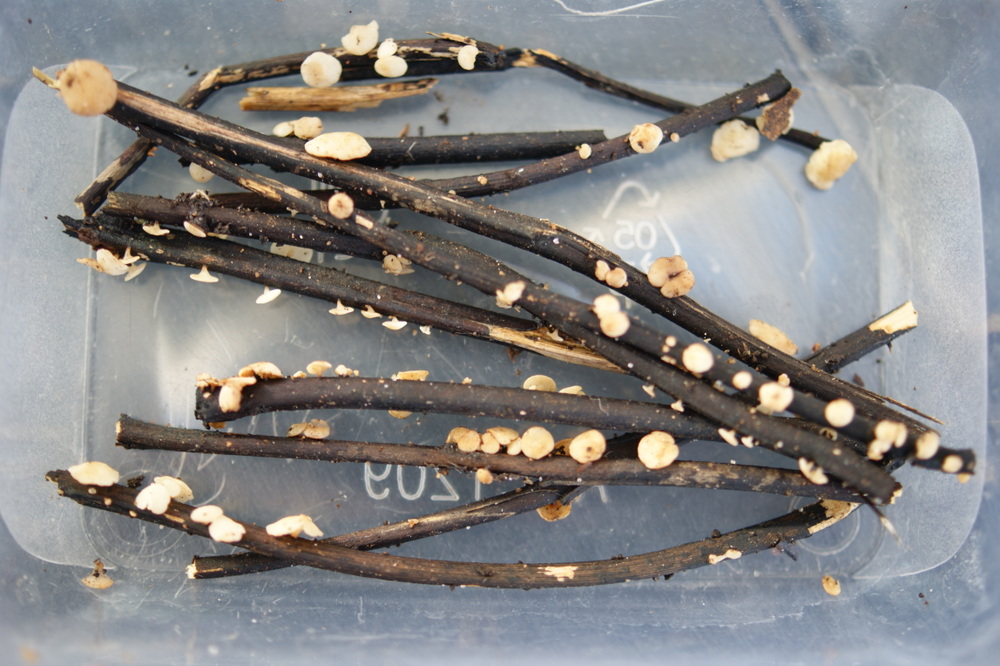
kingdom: Fungi
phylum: Ascomycota
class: Leotiomycetes
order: Helotiales
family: Helotiaceae
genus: Hymenoscyphus
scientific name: Hymenoscyphus fraxineus
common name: asketoptørre-stilkskive
